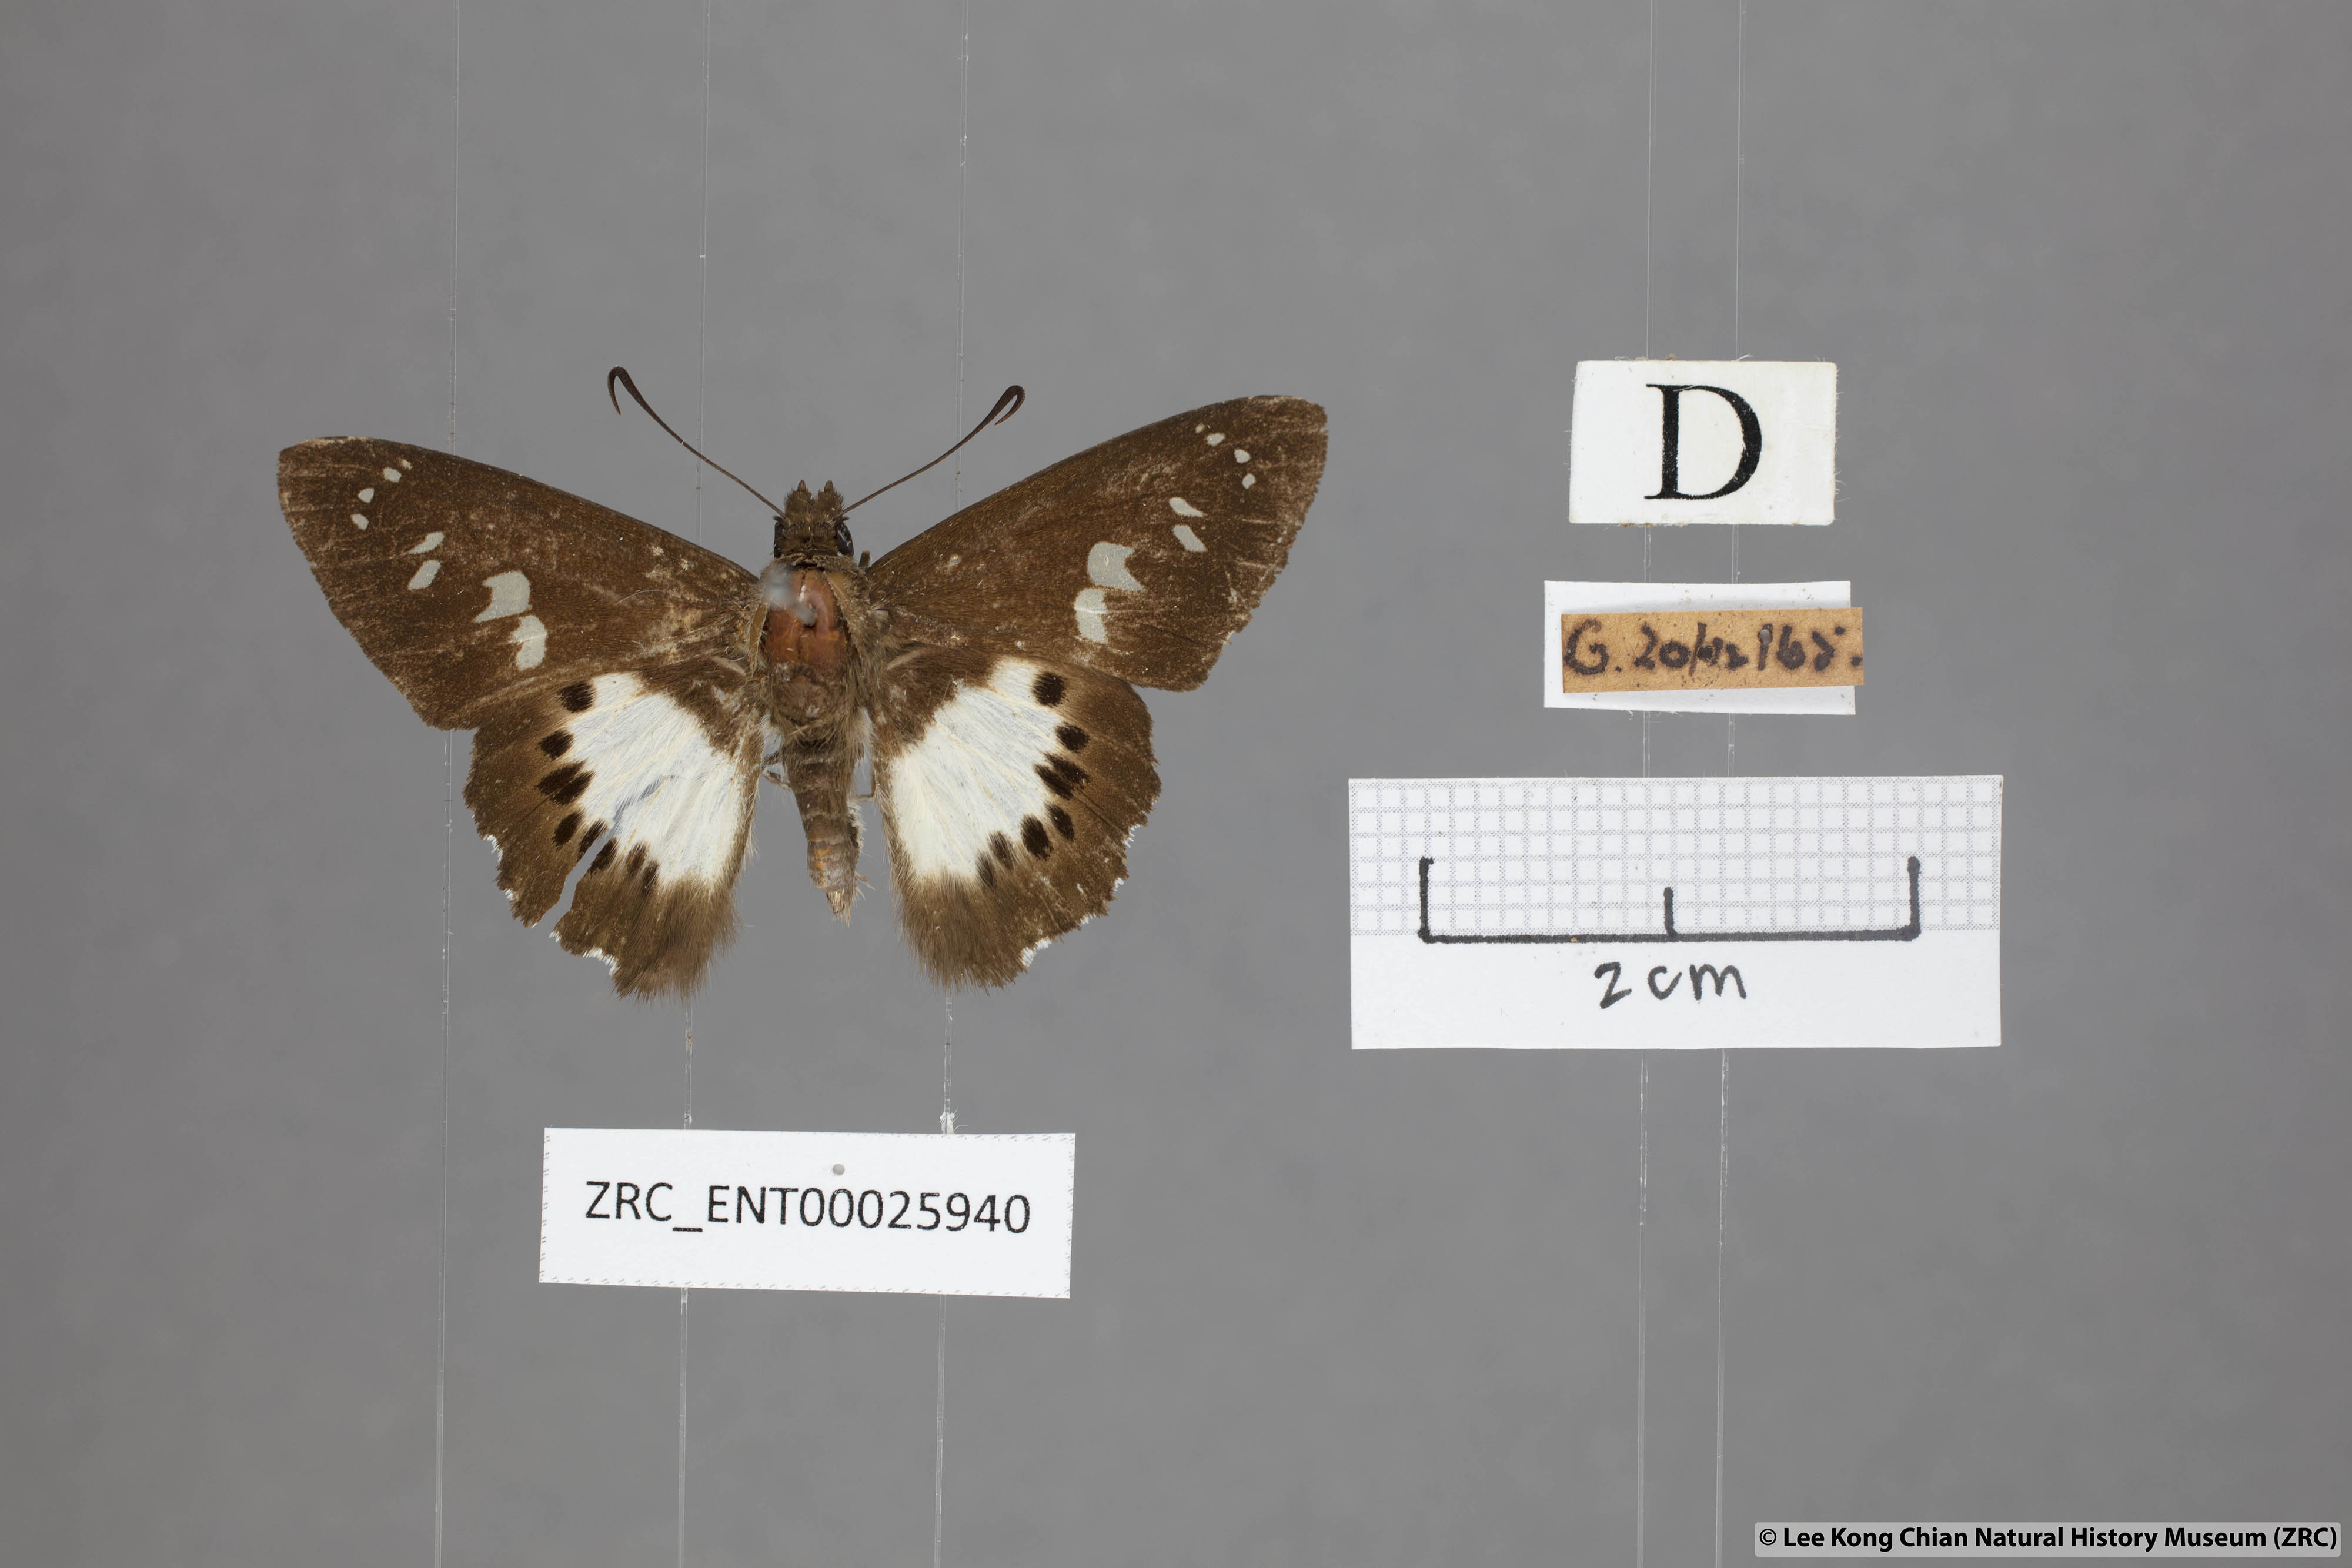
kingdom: Animalia
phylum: Arthropoda
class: Insecta
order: Lepidoptera
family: Hesperiidae
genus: Seseria
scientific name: Seseria affinis
